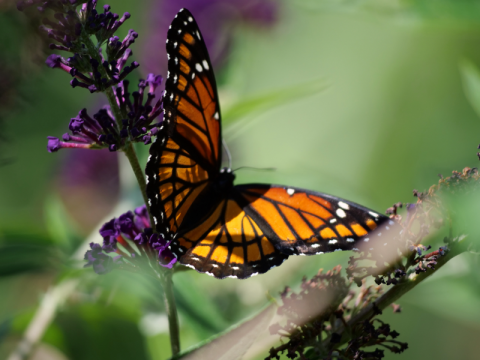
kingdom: Animalia
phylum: Arthropoda
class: Insecta
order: Lepidoptera
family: Nymphalidae
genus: Limenitis
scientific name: Limenitis archippus
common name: Viceroy
